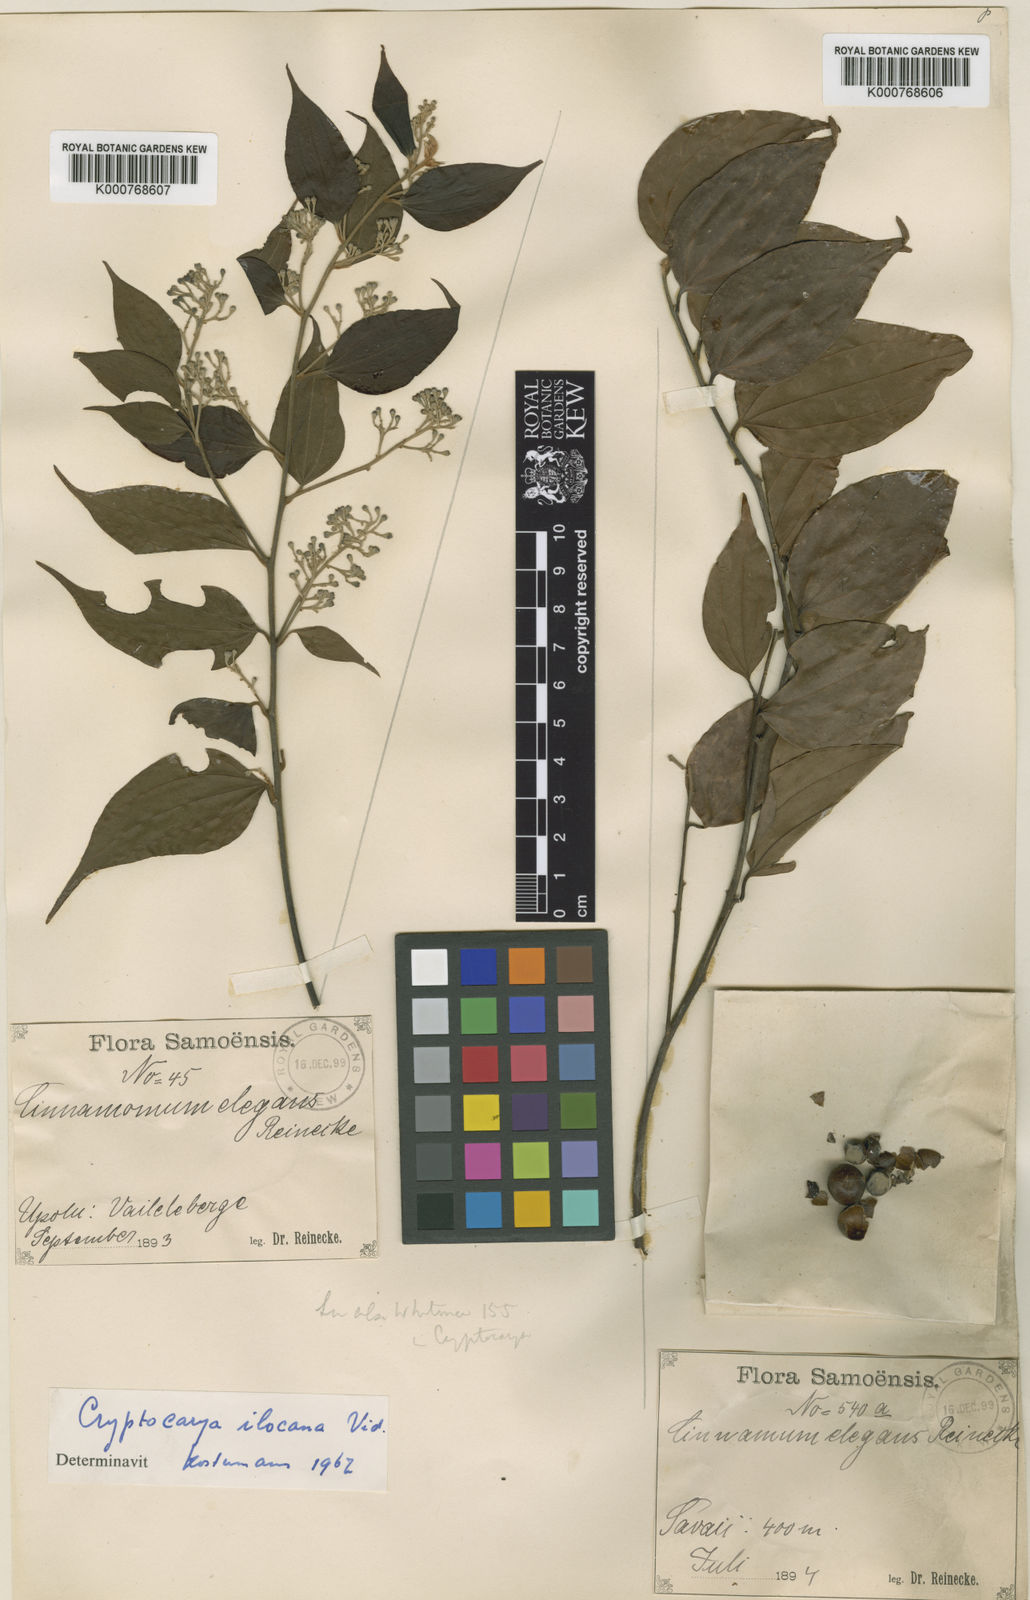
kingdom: Plantae
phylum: Tracheophyta
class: Magnoliopsida
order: Laurales
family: Lauraceae
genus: Cryptocarya
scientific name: Cryptocarya elegans
